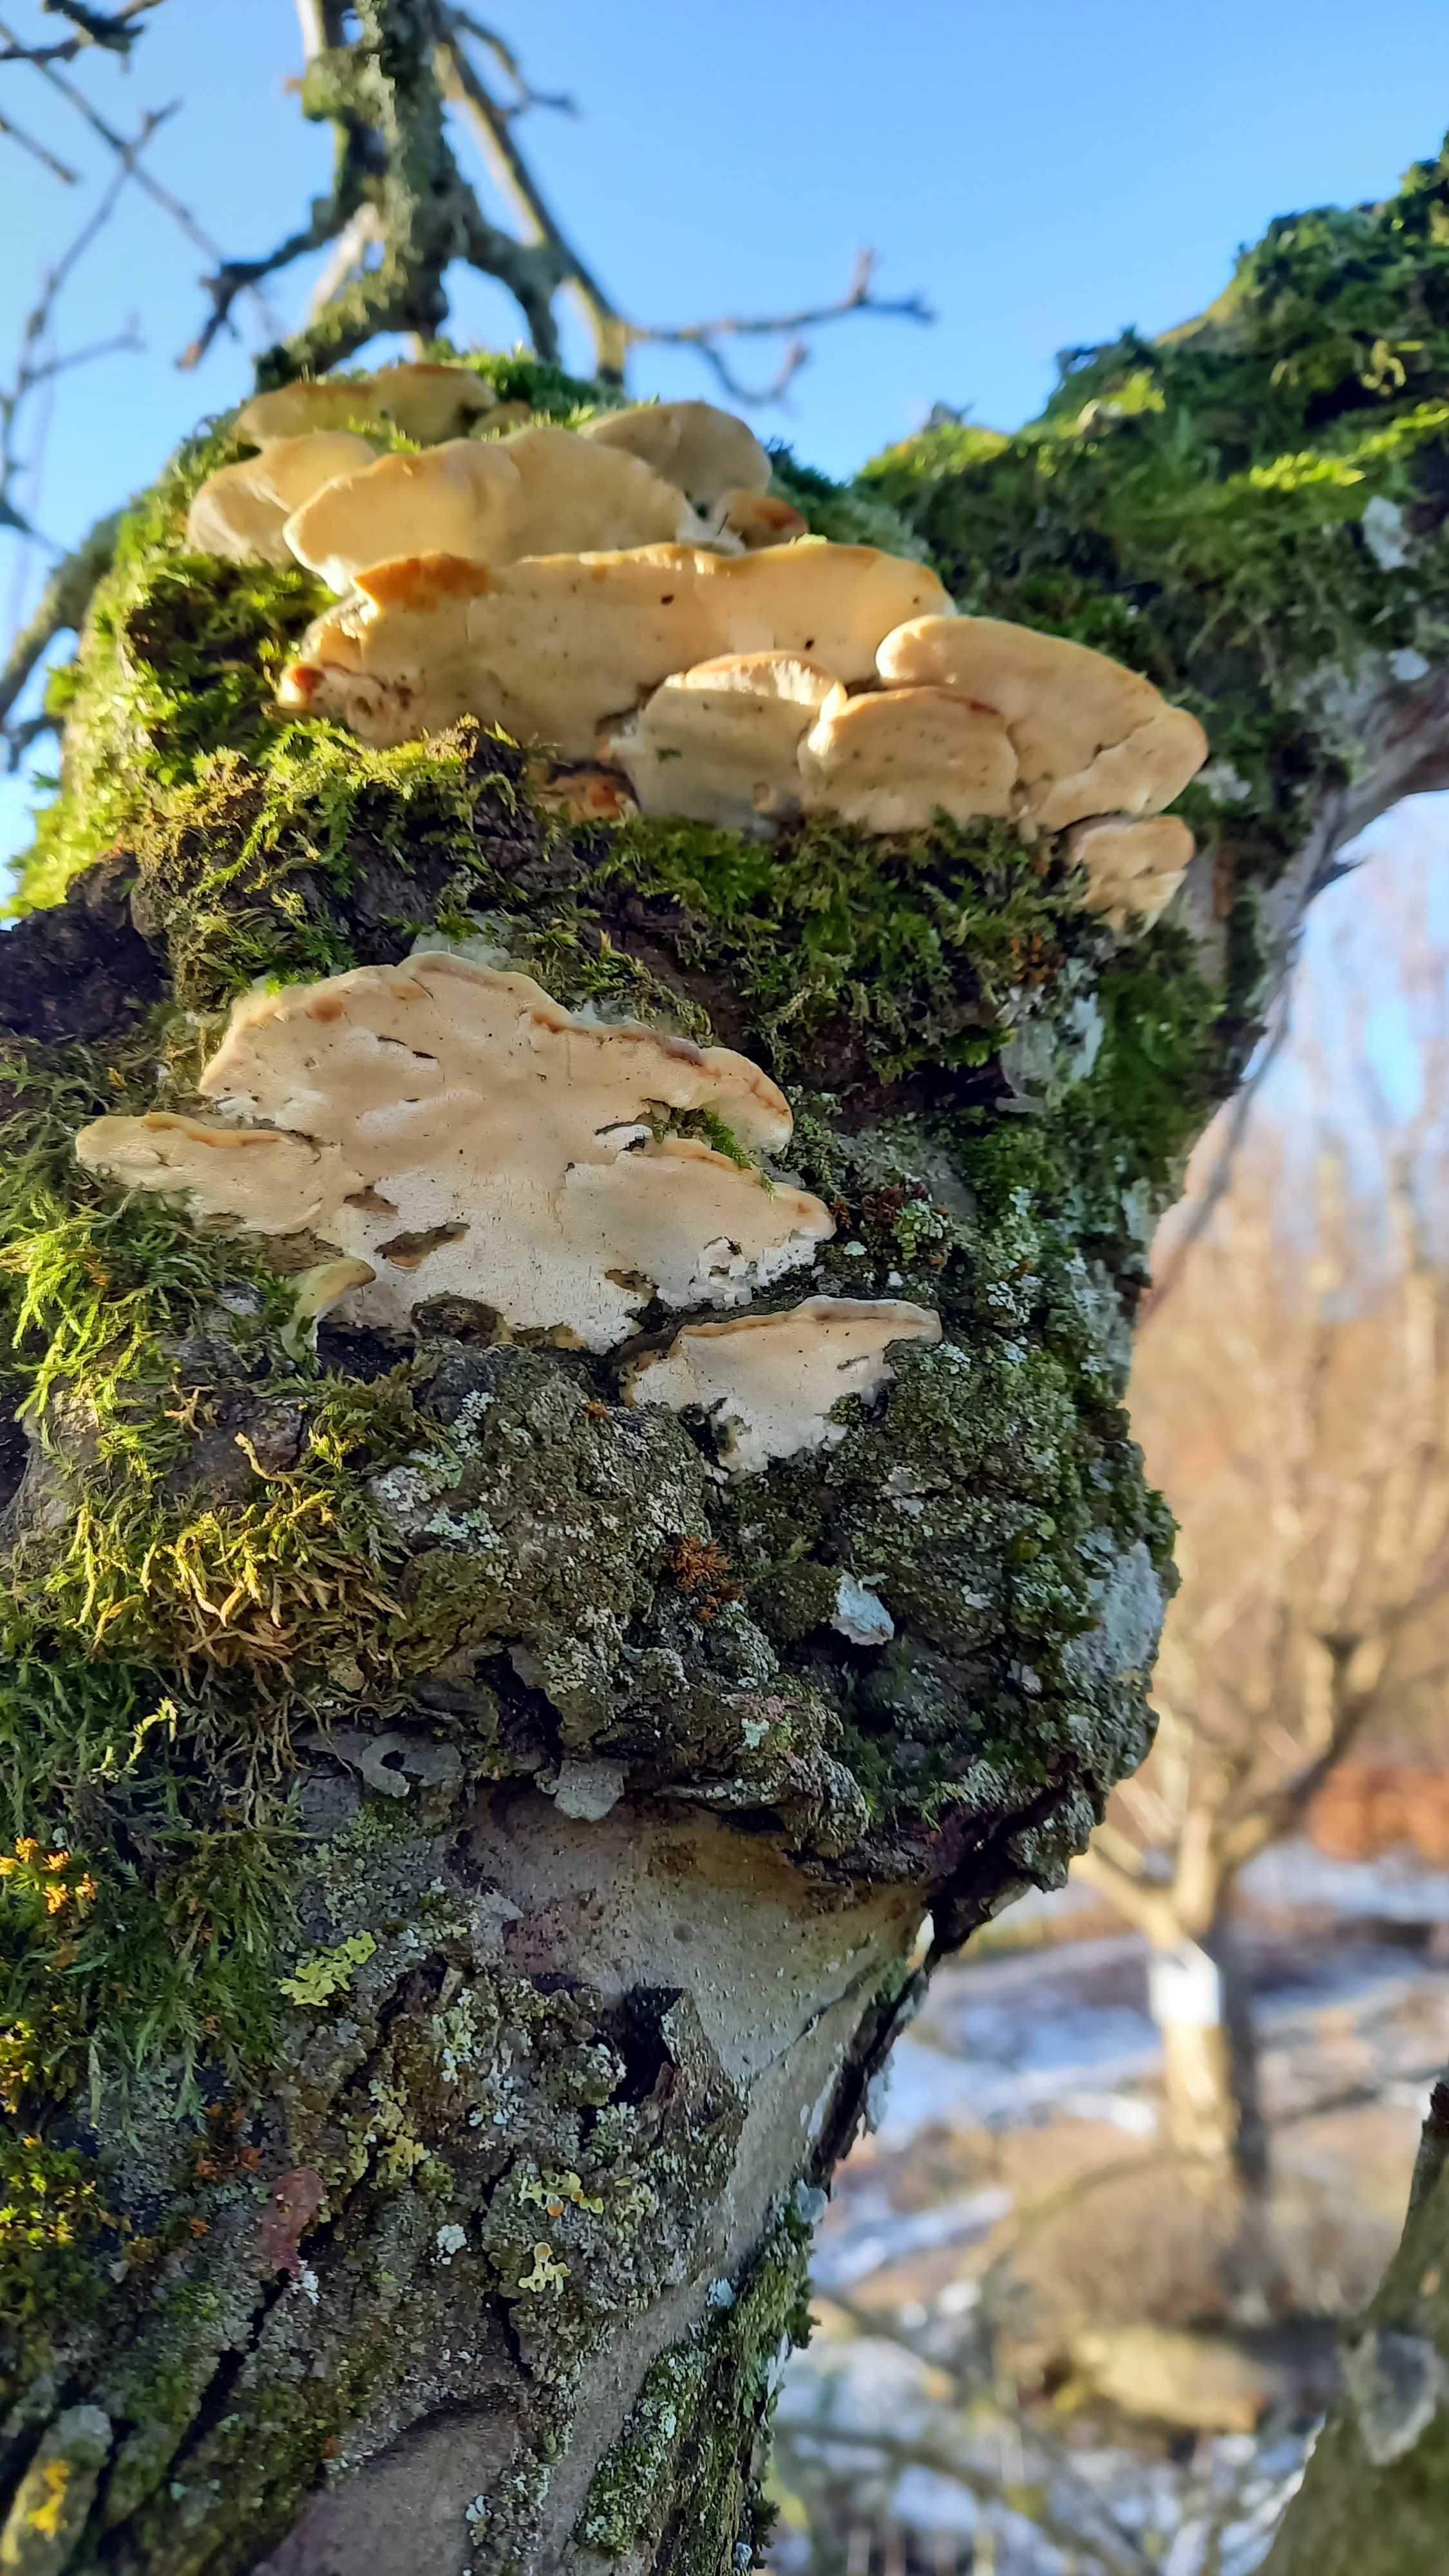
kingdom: Fungi
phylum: Basidiomycota
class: Agaricomycetes
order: Hymenochaetales
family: Oxyporaceae
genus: Oxyporus
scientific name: Oxyporus populinus
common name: sammenvokset trylleporesvamp
